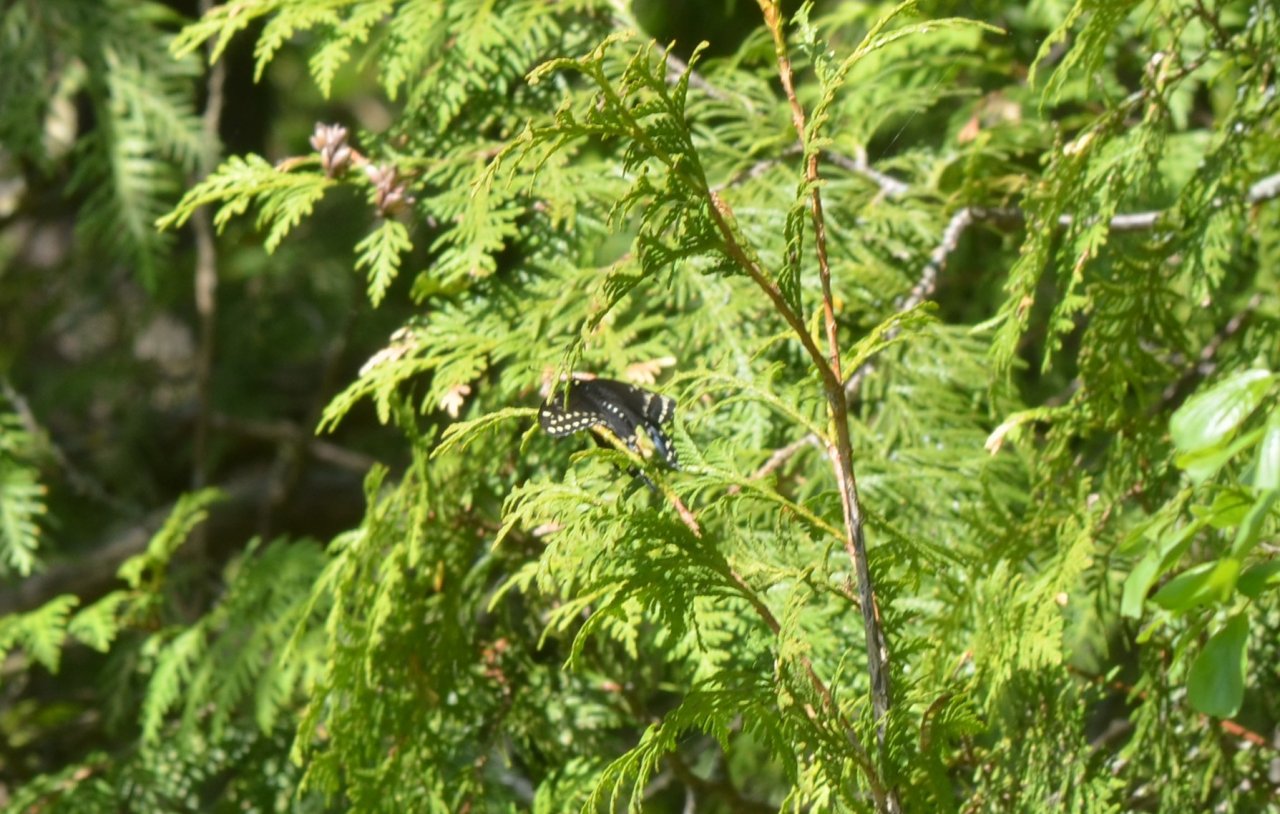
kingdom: Animalia
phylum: Arthropoda
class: Insecta
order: Lepidoptera
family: Papilionidae
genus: Papilio
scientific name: Papilio polyxenes
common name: Black Swallowtail
